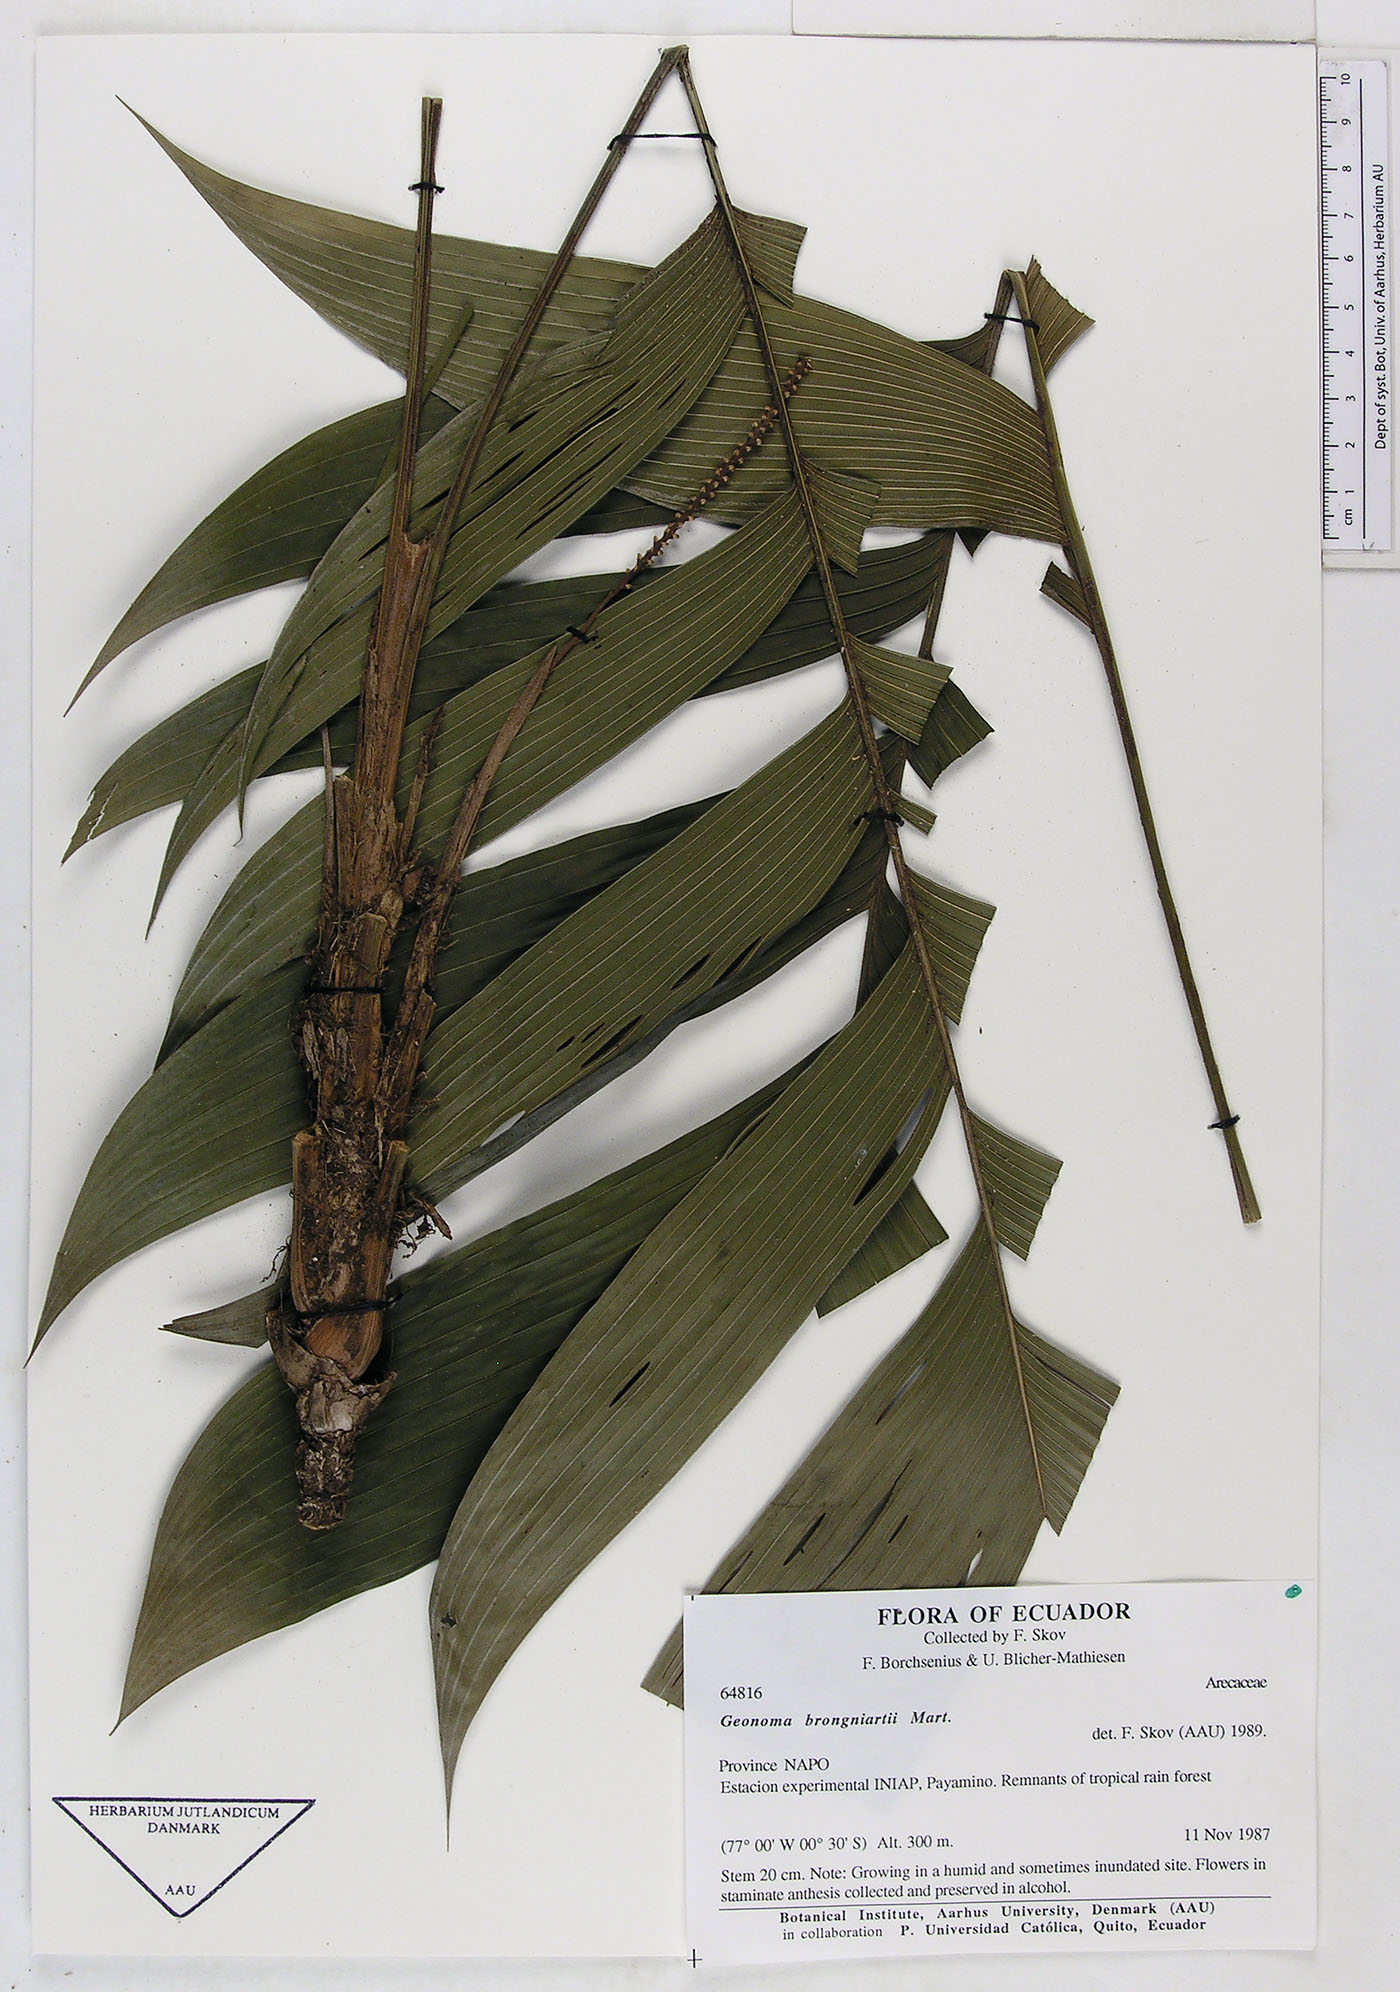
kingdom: Plantae
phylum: Tracheophyta
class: Liliopsida
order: Arecales
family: Arecaceae
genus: Geonoma
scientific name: Geonoma brongniartii
